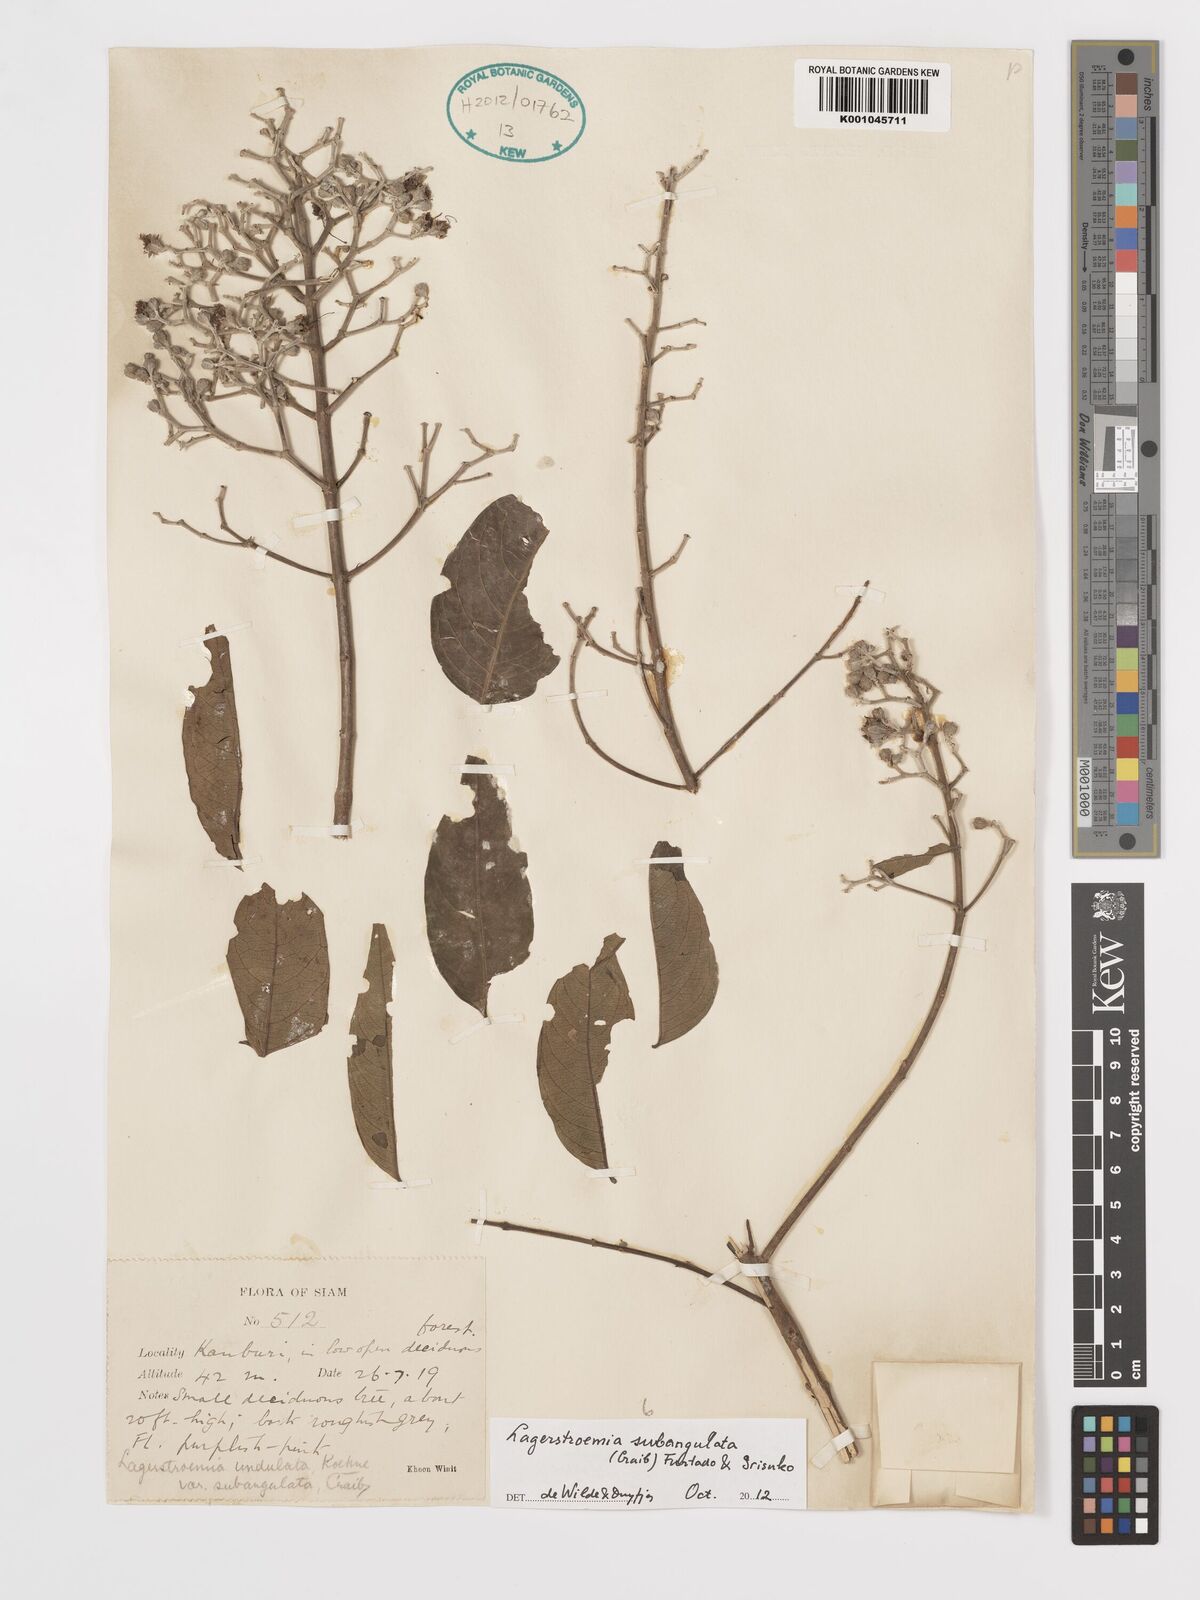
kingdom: Plantae
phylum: Tracheophyta
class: Magnoliopsida
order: Myrtales
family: Lythraceae
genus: Lagerstroemia
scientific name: Lagerstroemia subangulata
